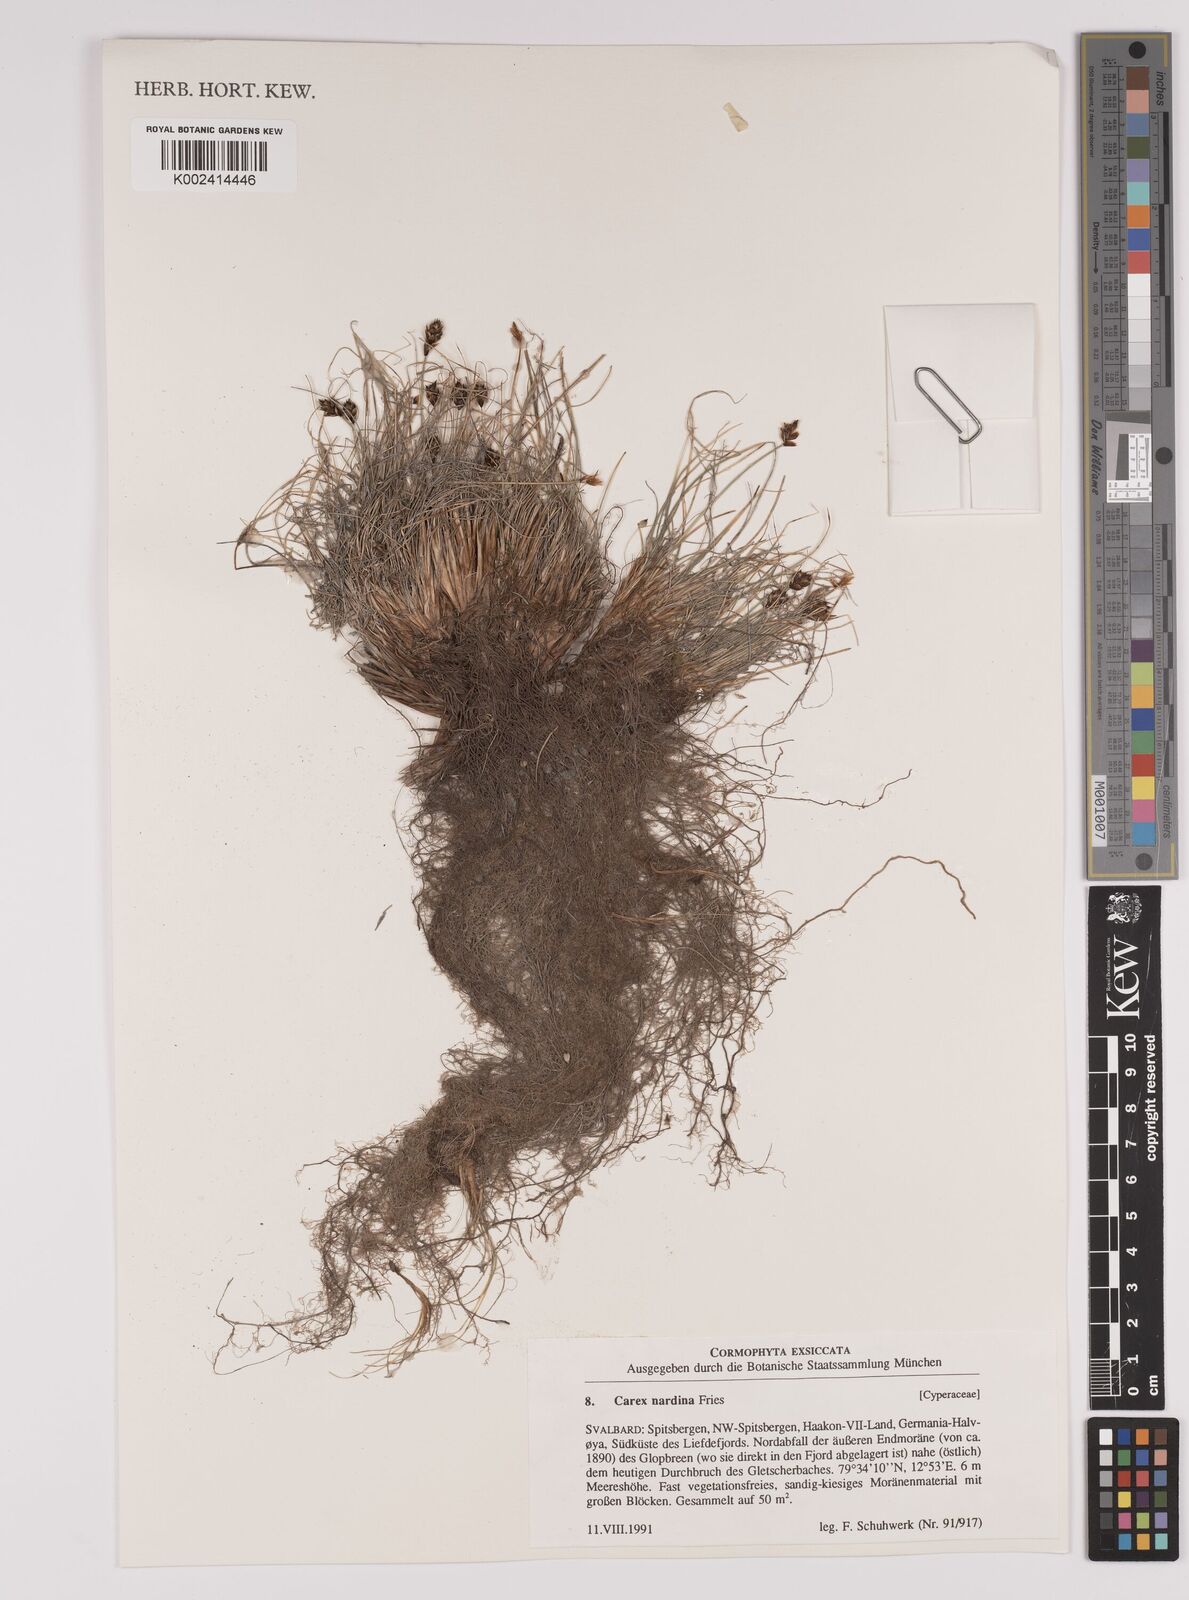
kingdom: Plantae
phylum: Tracheophyta
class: Liliopsida
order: Poales
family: Cyperaceae
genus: Carex
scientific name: Carex nardina
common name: Nard sedge
